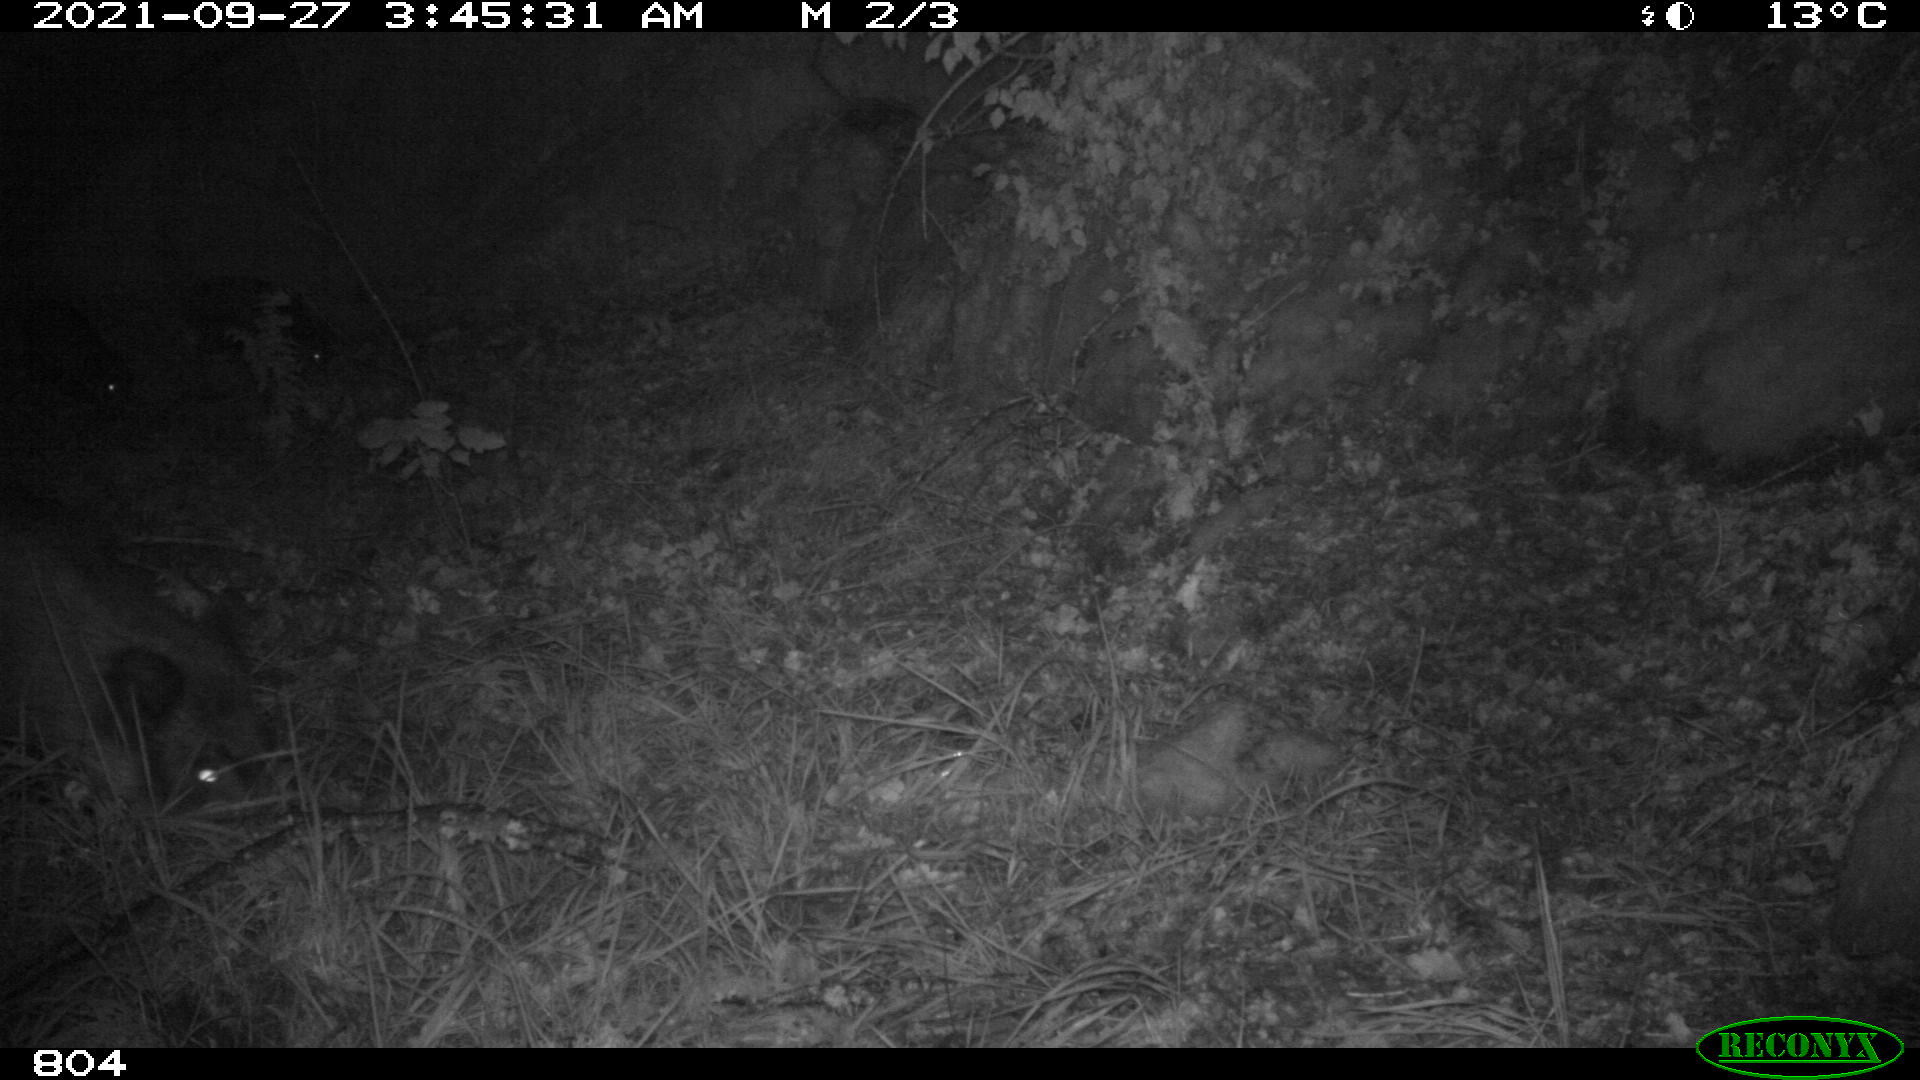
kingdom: Animalia
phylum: Chordata
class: Mammalia
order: Artiodactyla
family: Suidae
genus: Sus
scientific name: Sus scrofa
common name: Wild boar
